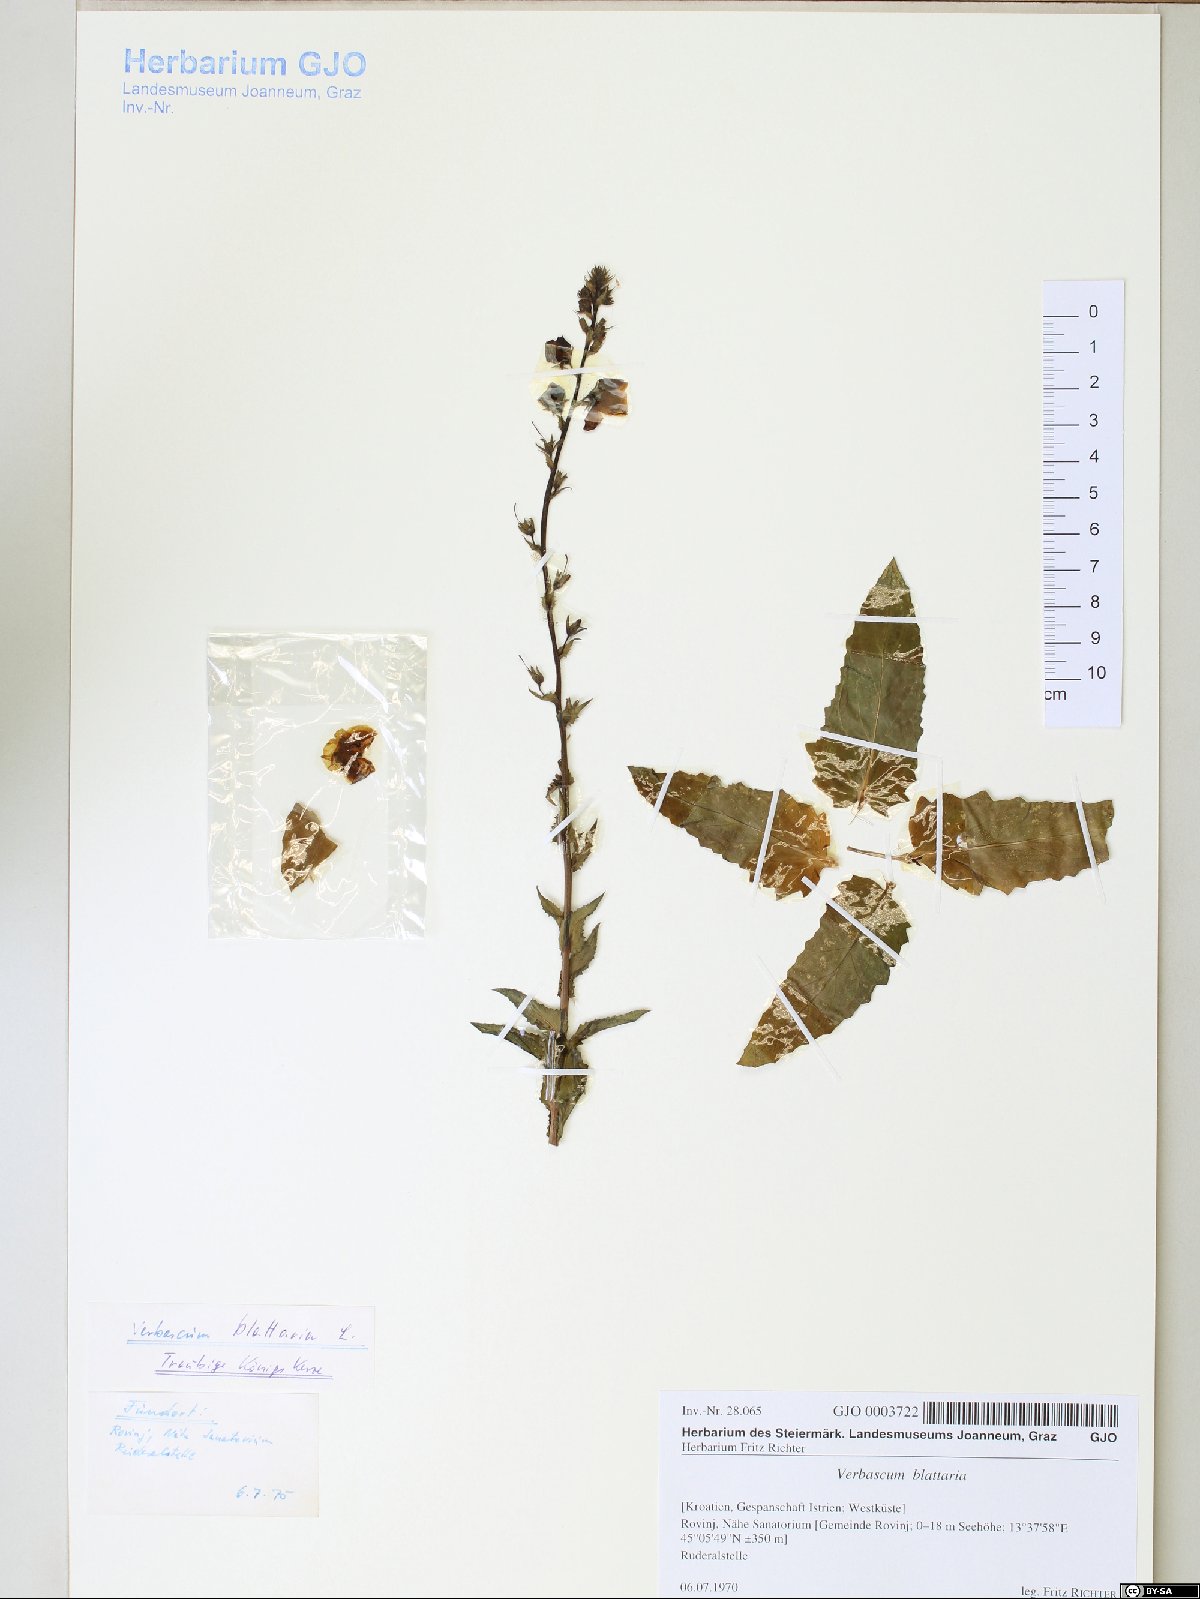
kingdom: Plantae
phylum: Tracheophyta
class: Magnoliopsida
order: Lamiales
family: Scrophulariaceae
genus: Verbascum
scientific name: Verbascum blattaria
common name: Moth mullein
